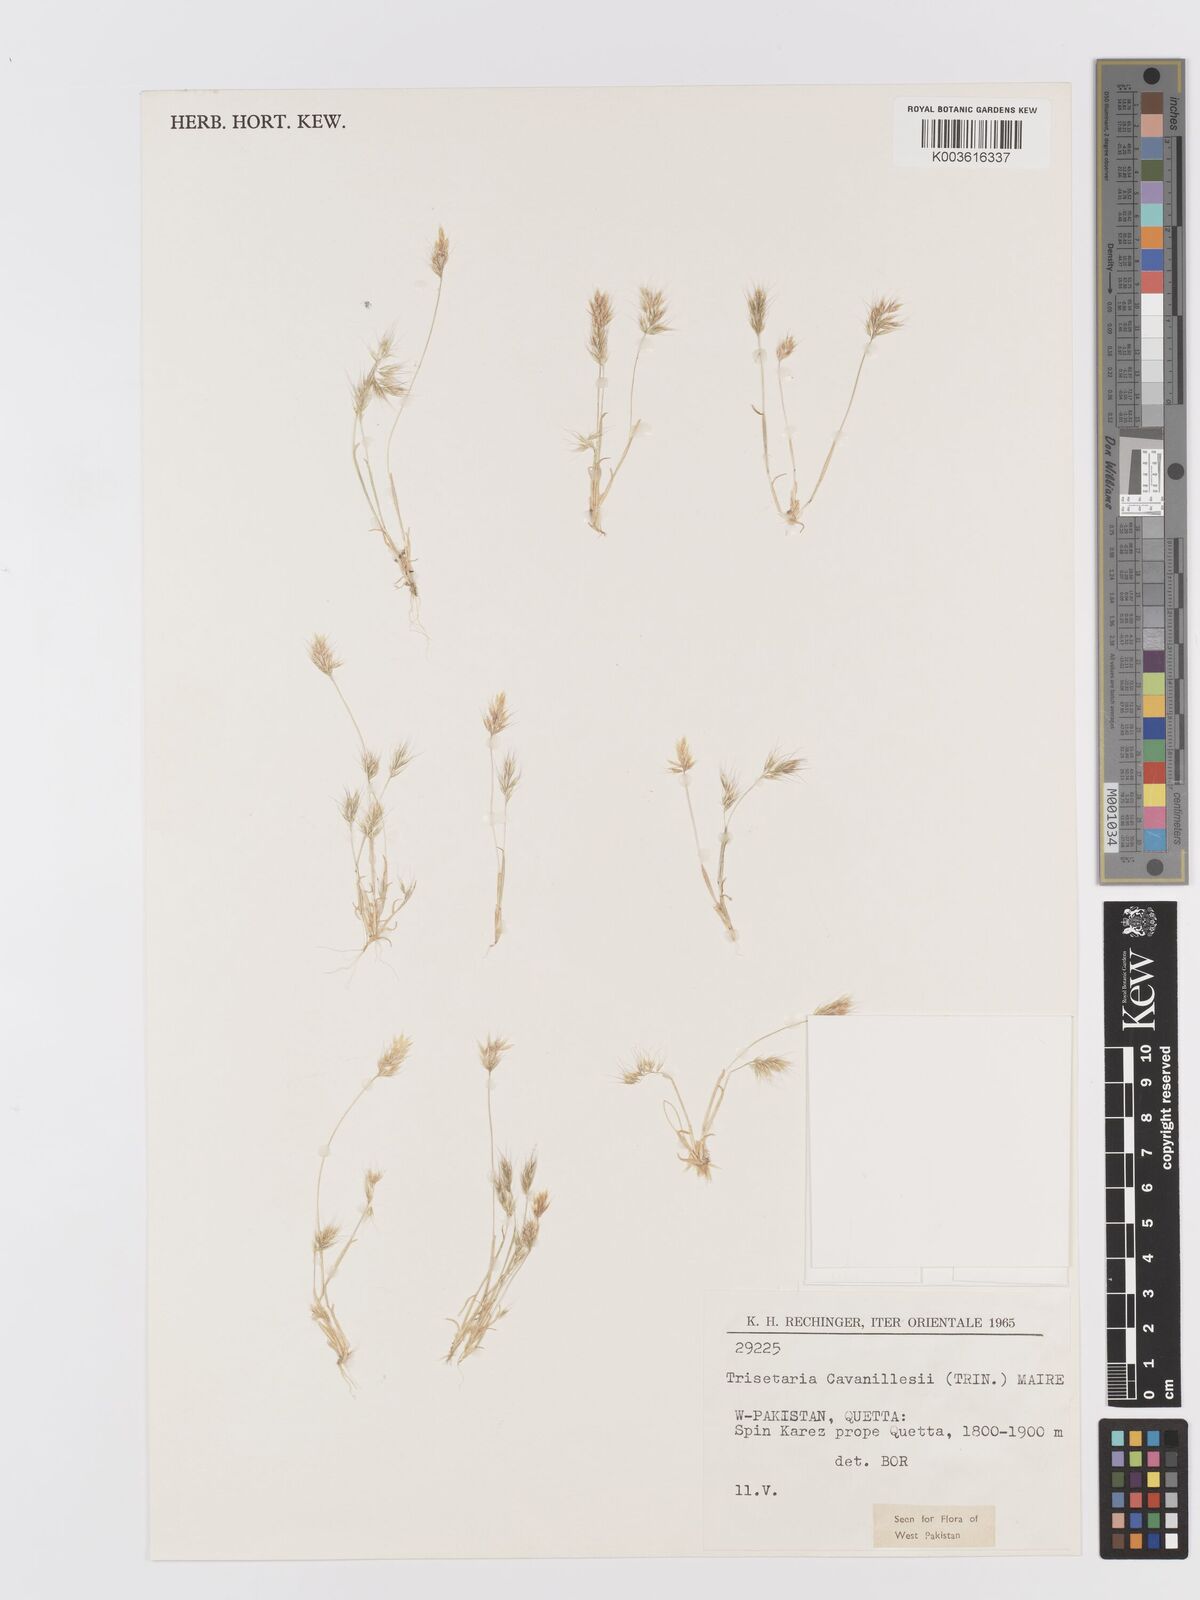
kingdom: Plantae
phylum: Tracheophyta
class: Liliopsida
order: Poales
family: Poaceae
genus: Trisetaria
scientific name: Trisetaria loeflingiana
